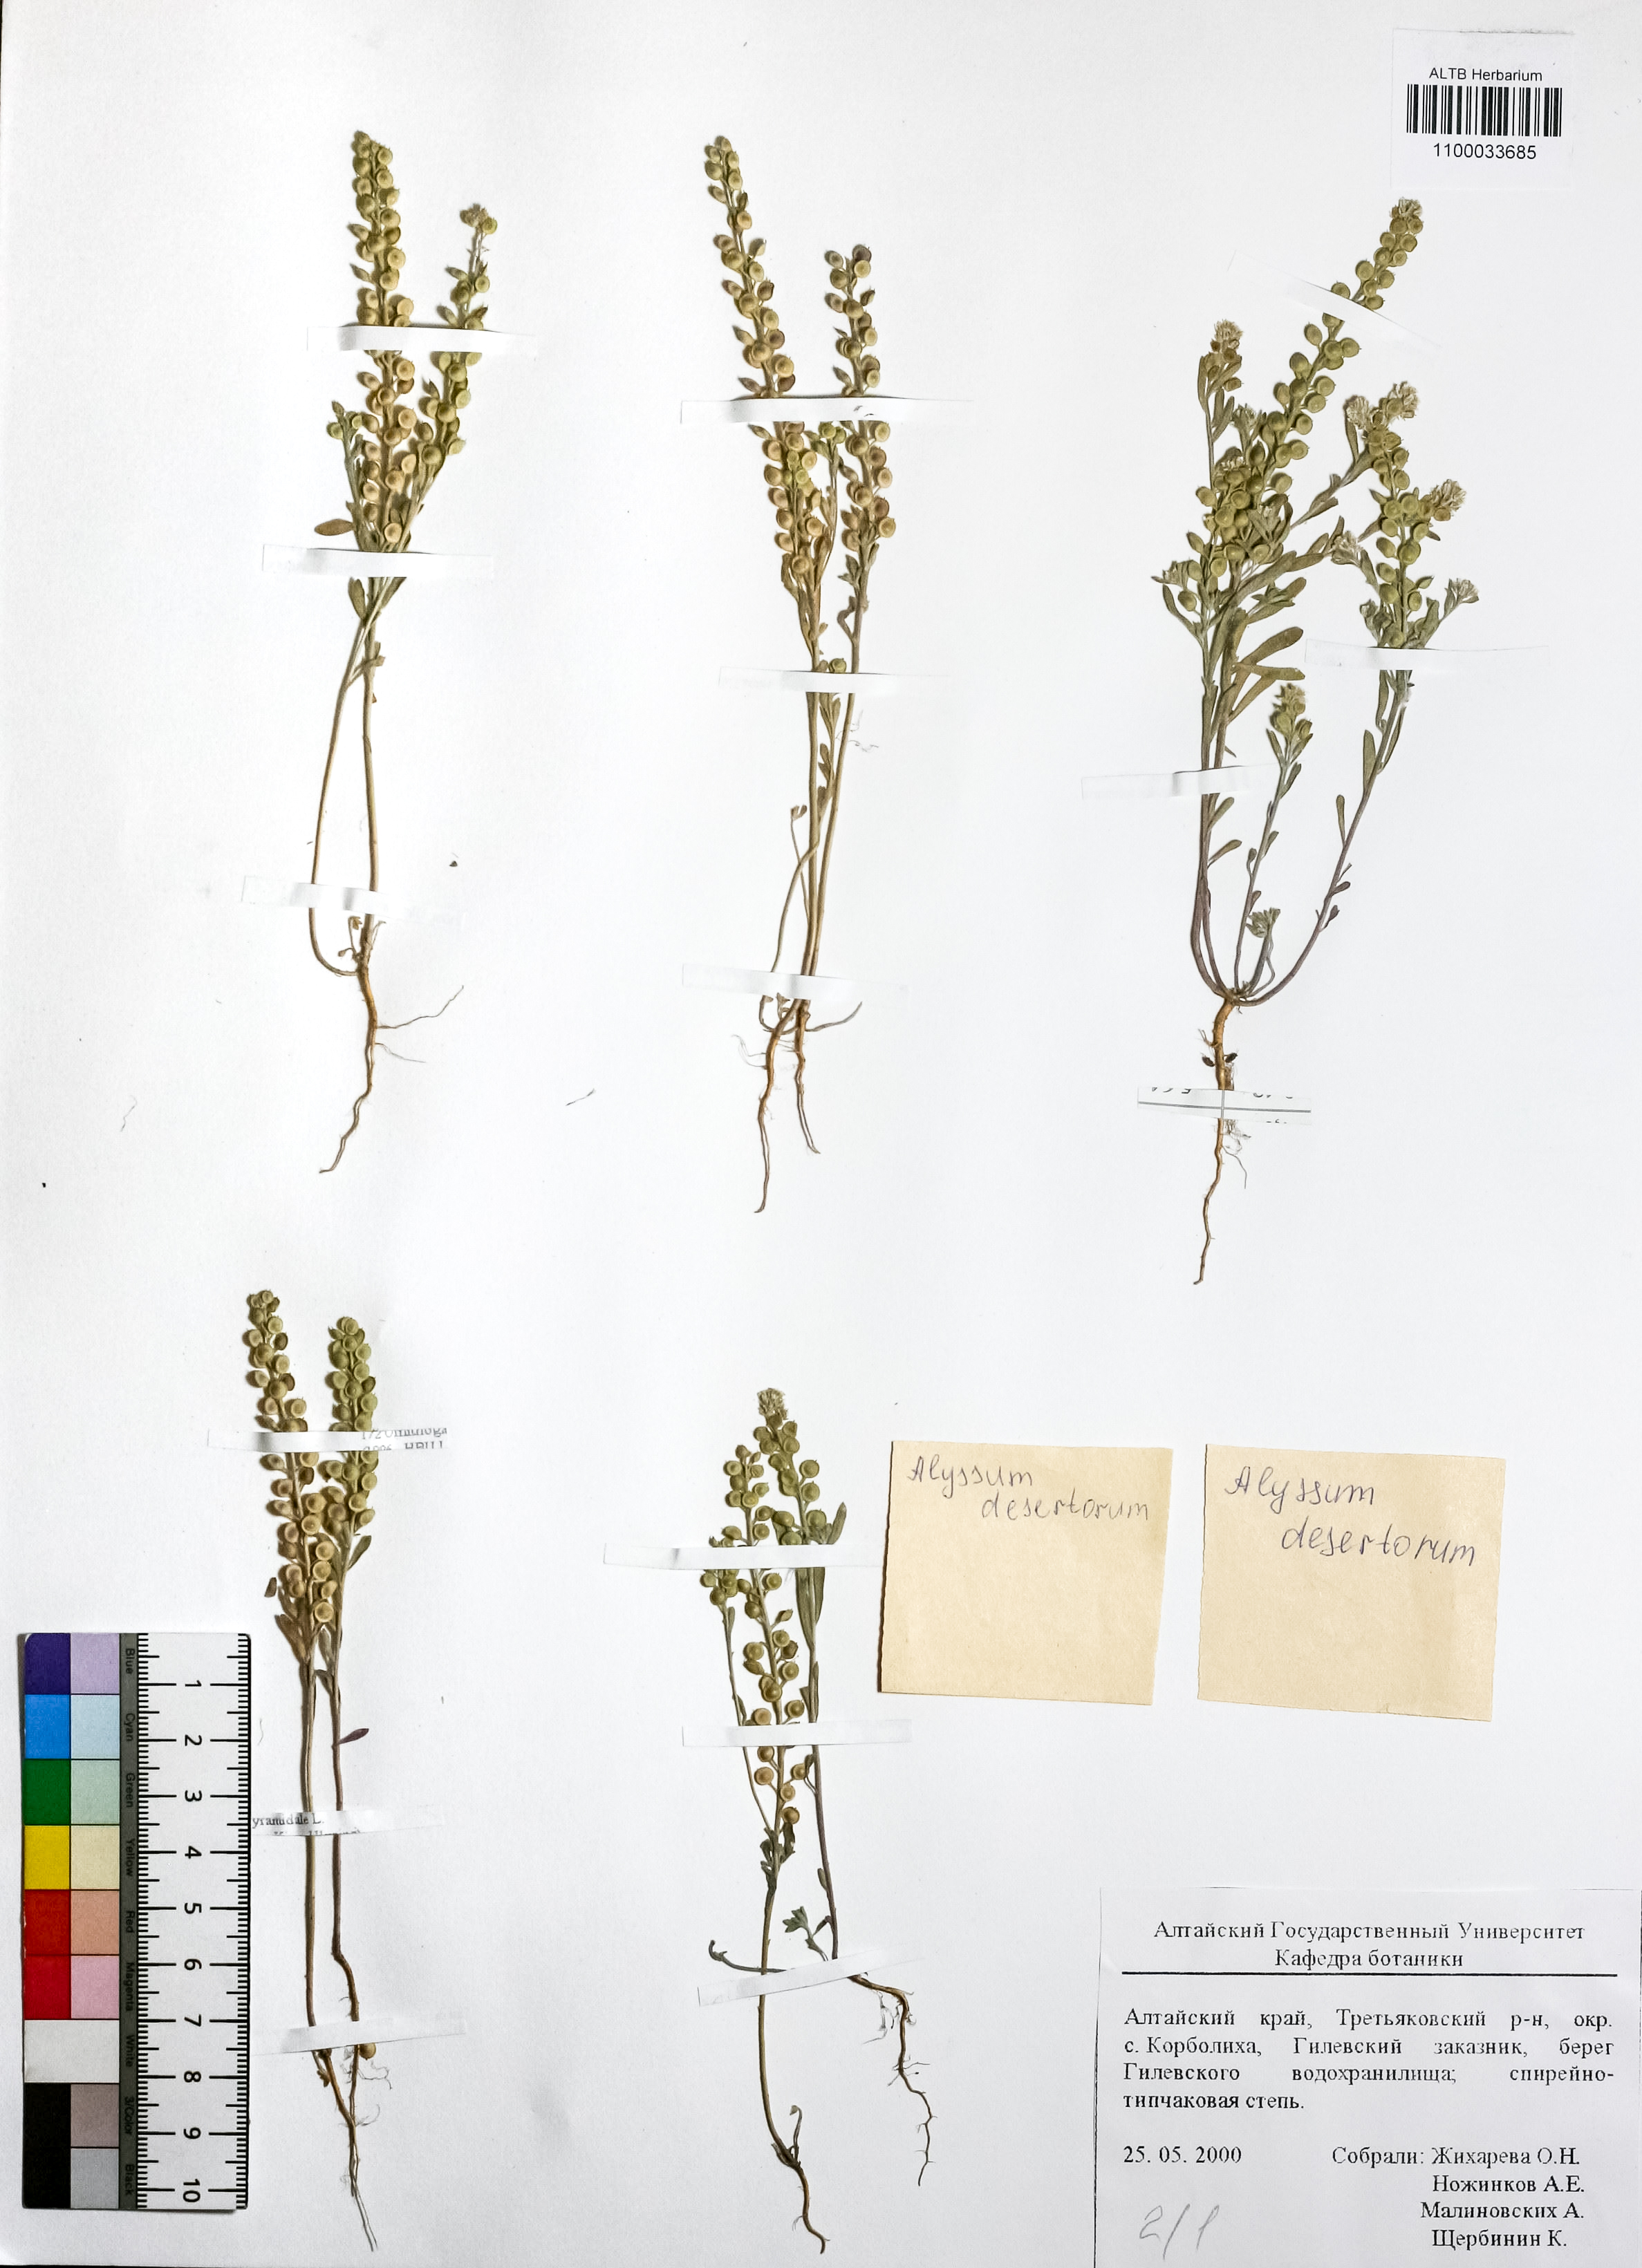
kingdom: Plantae
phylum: Tracheophyta
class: Magnoliopsida
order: Brassicales
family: Brassicaceae
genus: Alyssum
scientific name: Alyssum turkestanicum
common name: Desert alyssum
